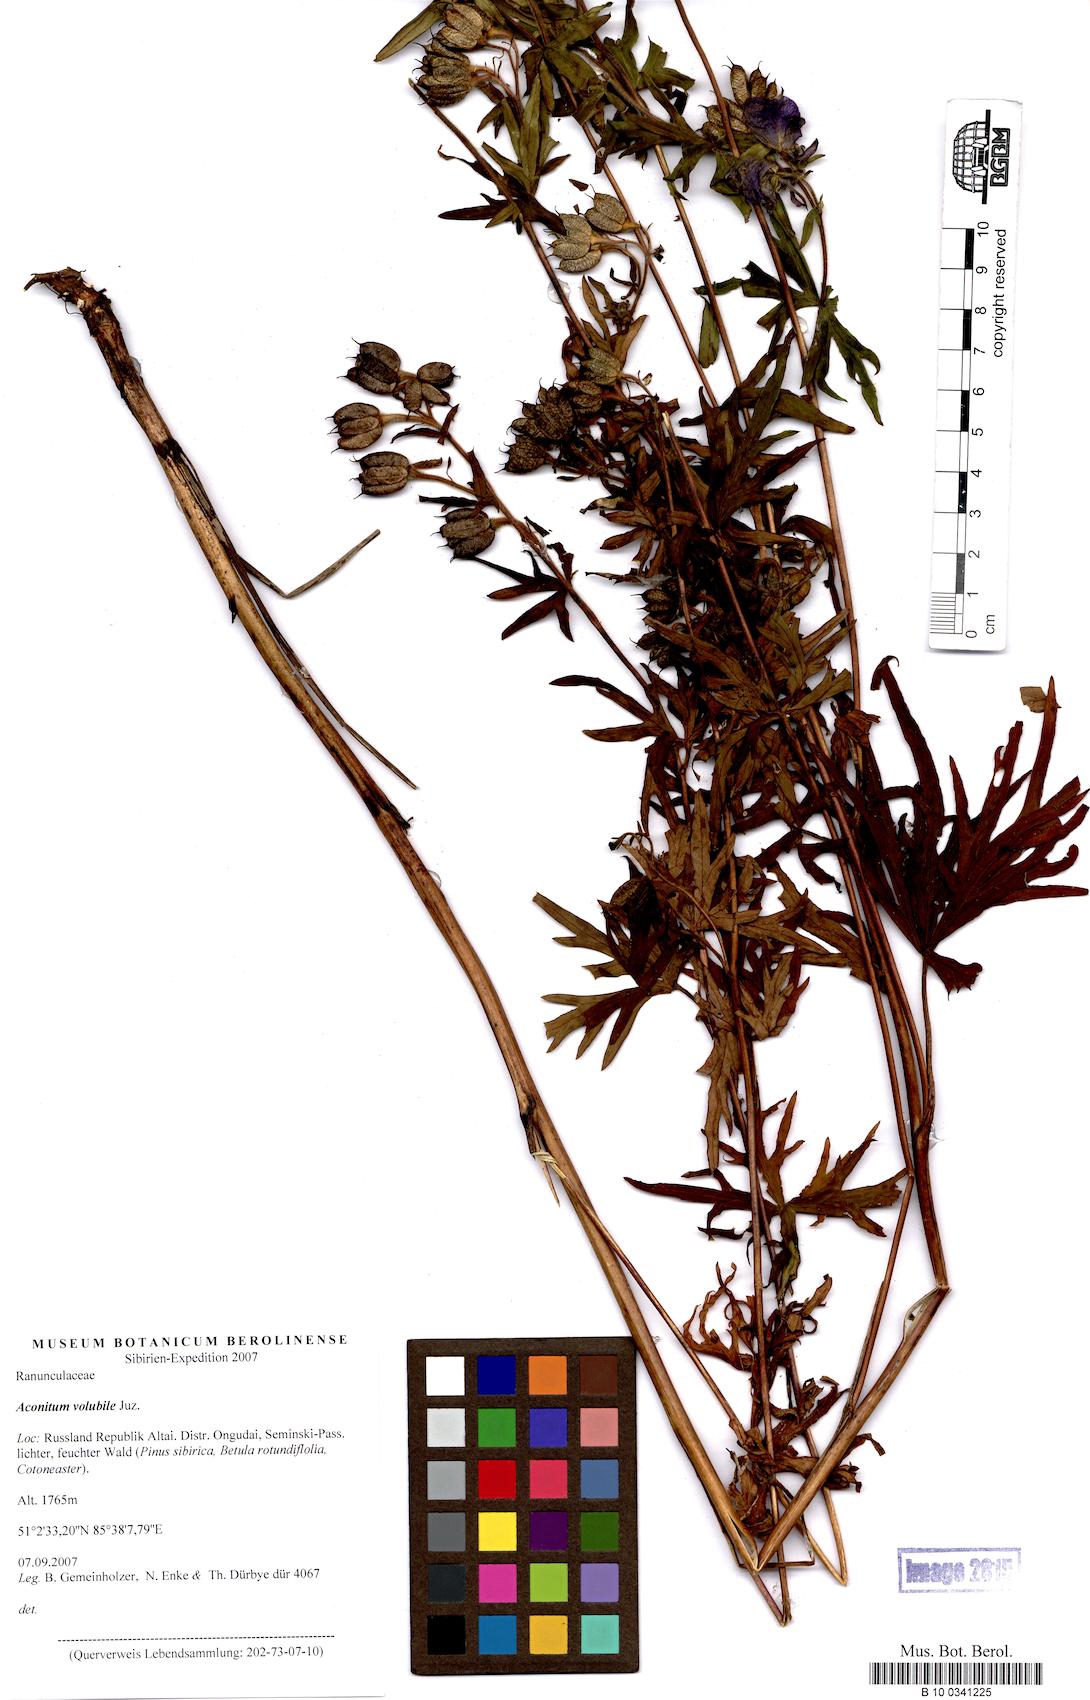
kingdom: Plantae
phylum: Tracheophyta
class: Magnoliopsida
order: Ranunculales
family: Ranunculaceae
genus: Aconitum
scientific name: Aconitum volubile
